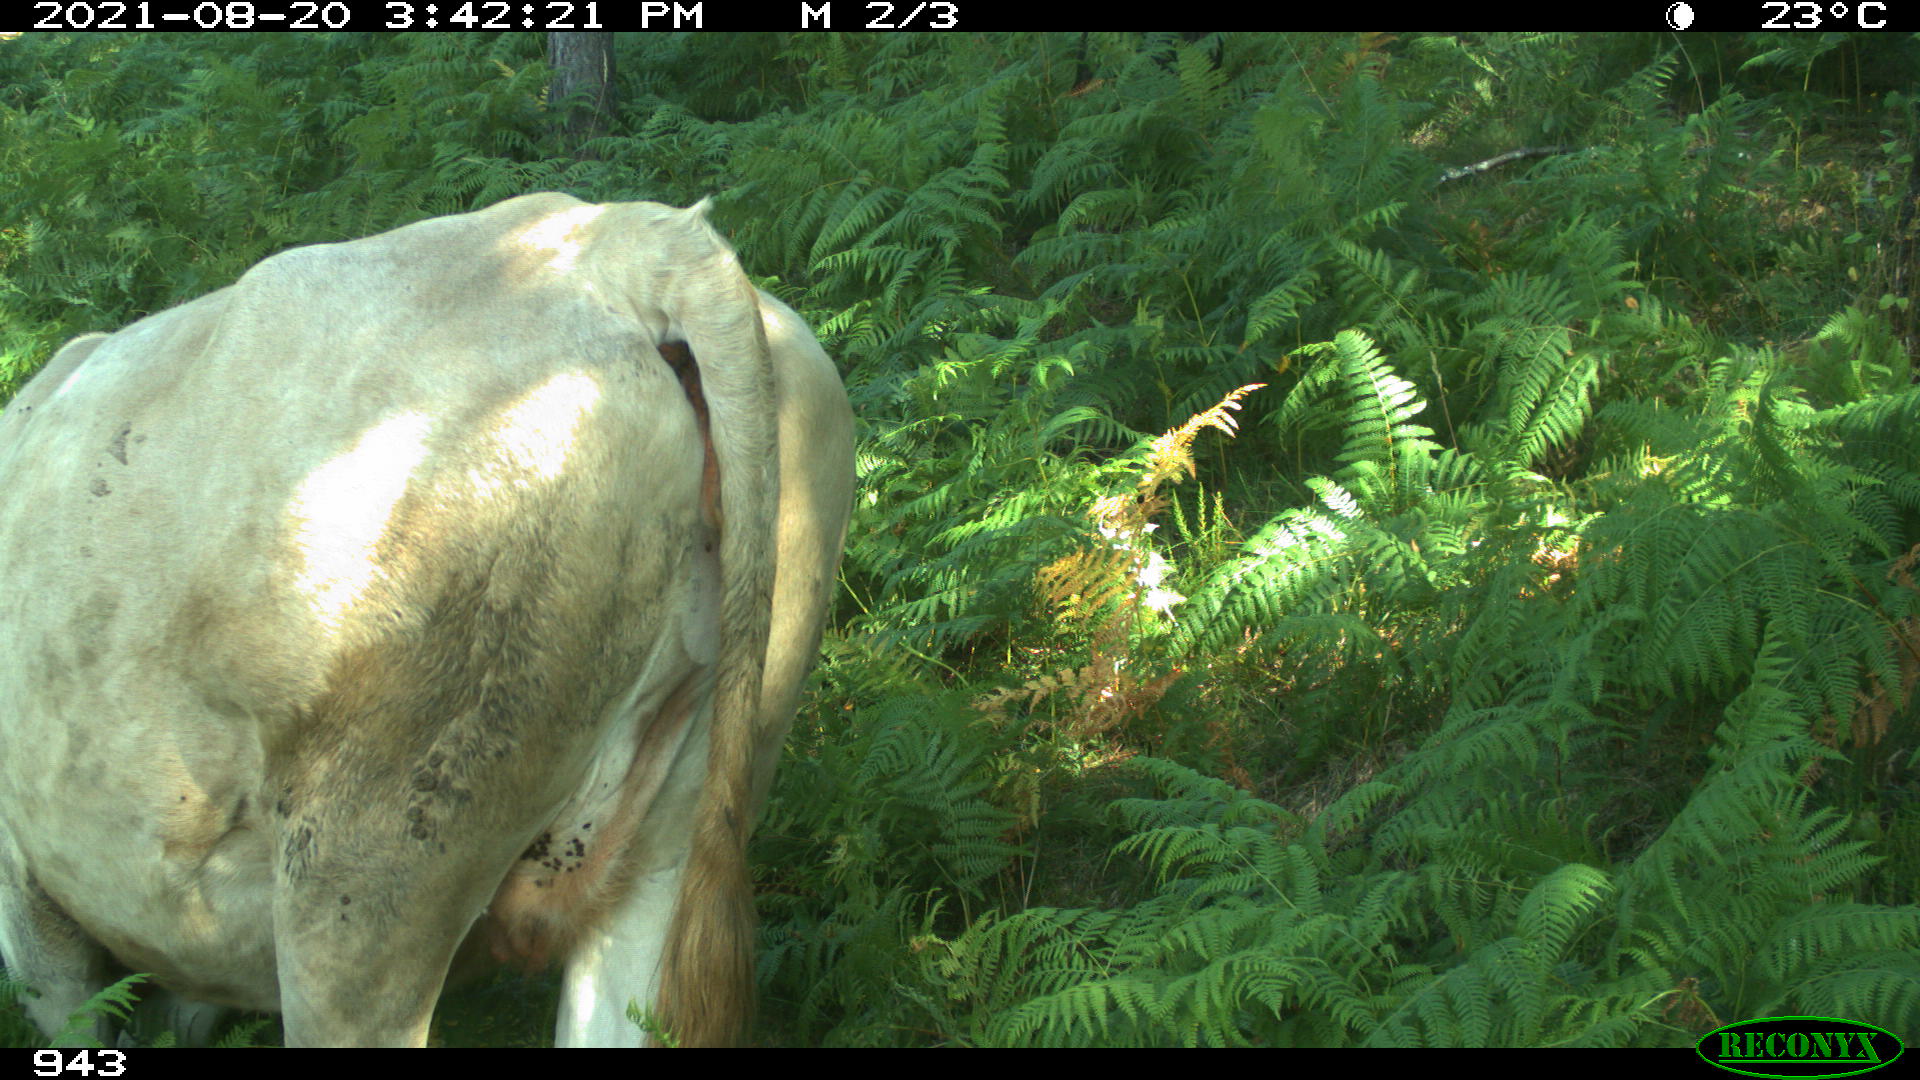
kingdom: Animalia
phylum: Chordata
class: Mammalia
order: Artiodactyla
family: Bovidae
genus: Bos
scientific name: Bos taurus
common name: Domesticated cattle
